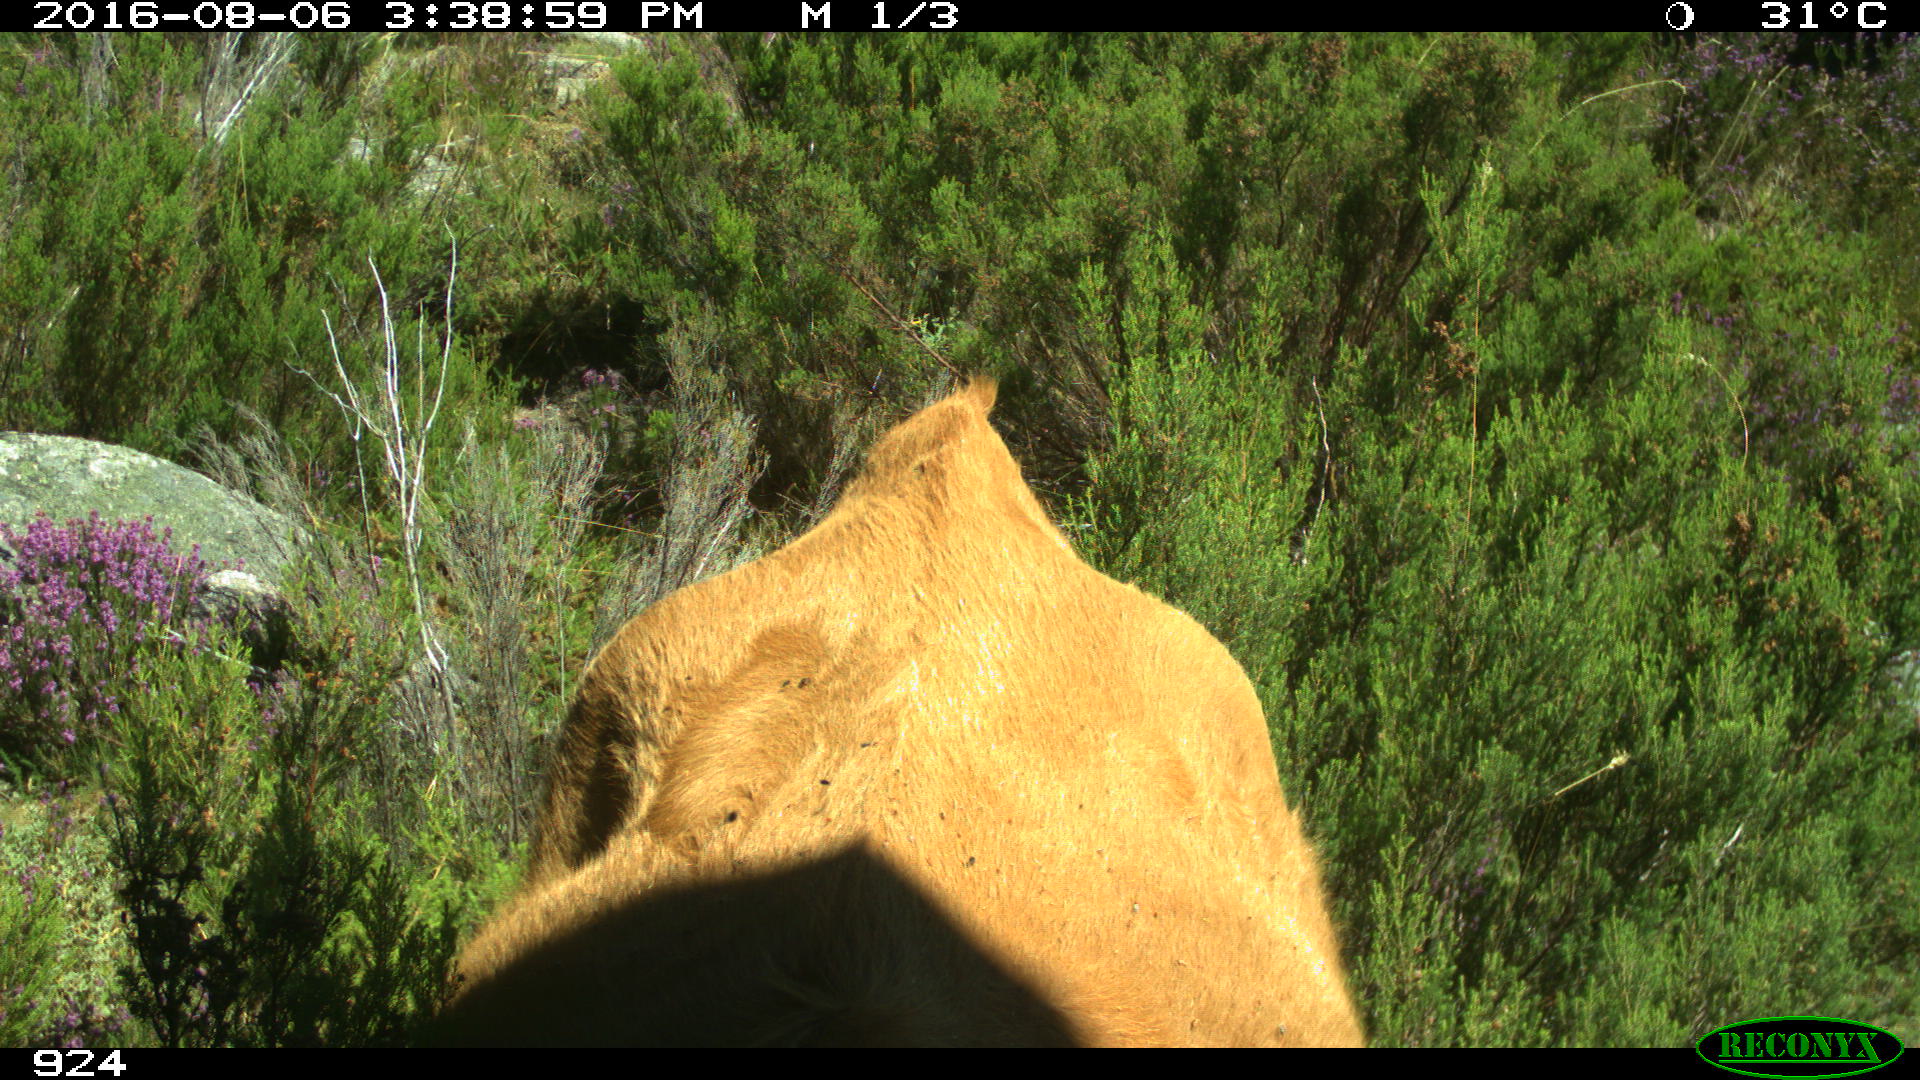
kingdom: Animalia
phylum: Chordata
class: Mammalia
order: Artiodactyla
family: Bovidae
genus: Bos
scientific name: Bos taurus
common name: Domesticated cattle
